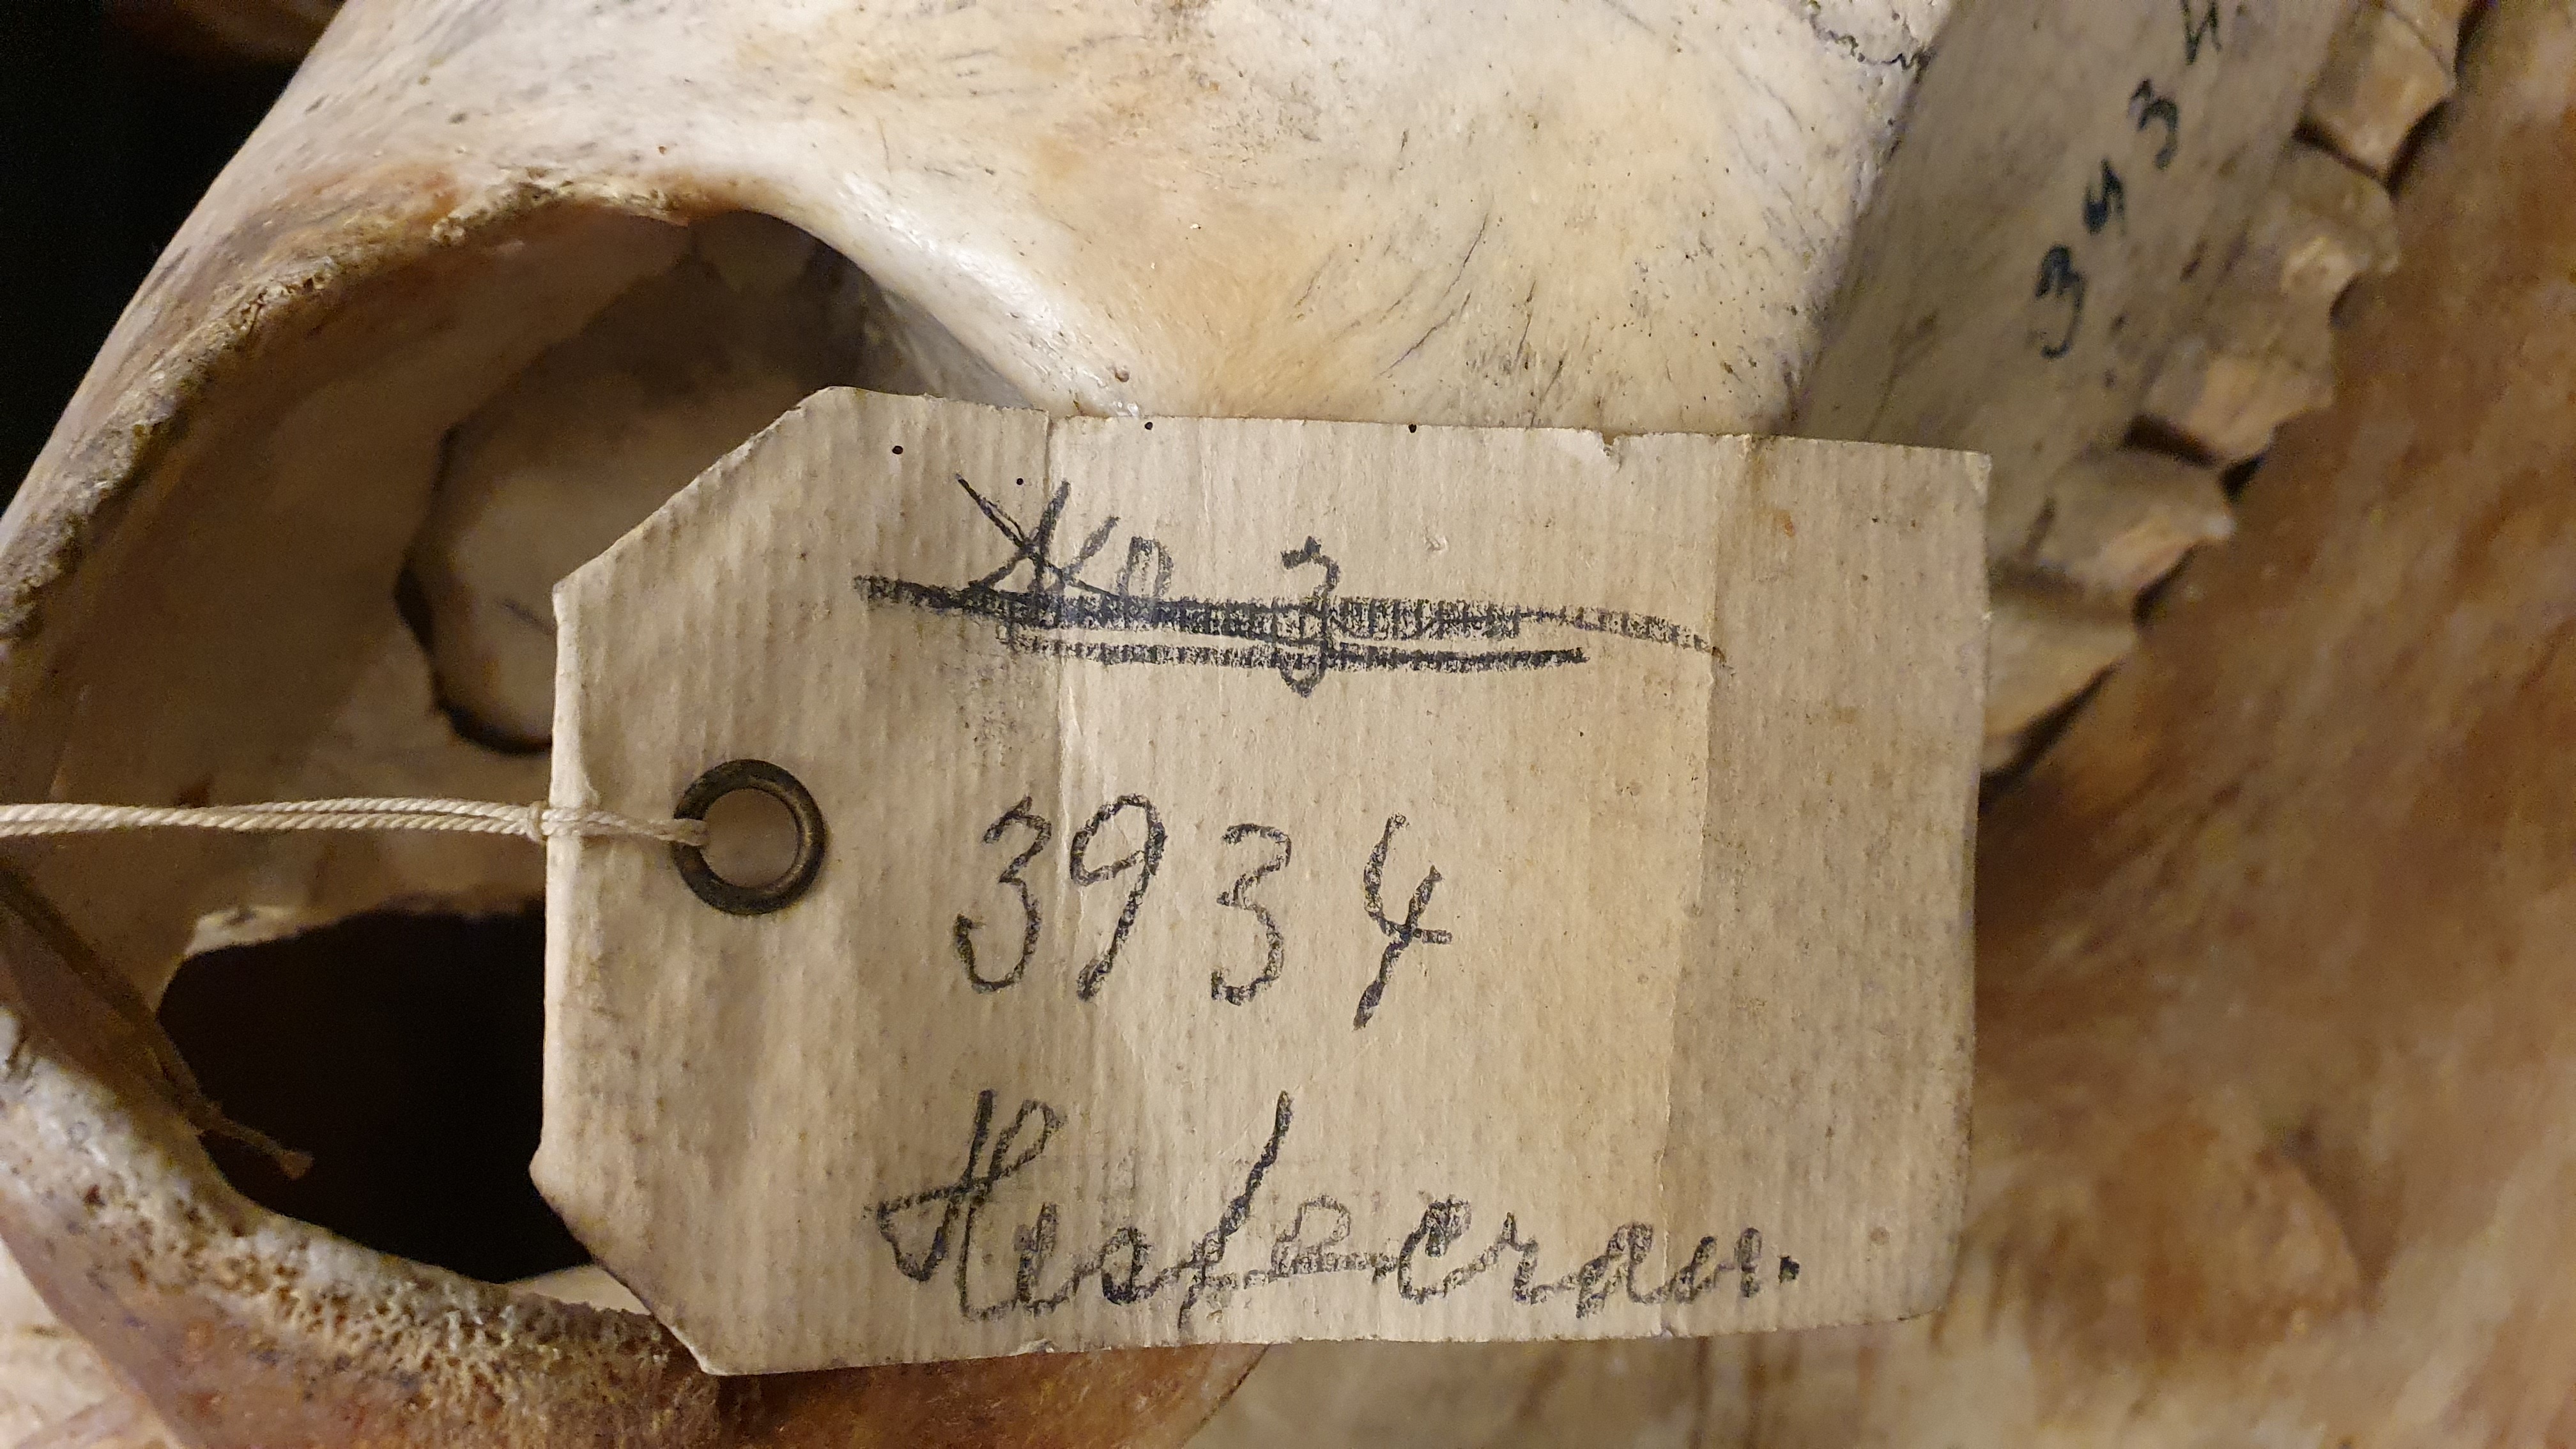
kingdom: Animalia
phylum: Chordata
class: Mammalia
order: Perissodactyla
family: Equidae
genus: Equus
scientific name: Equus asinus
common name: Ass
